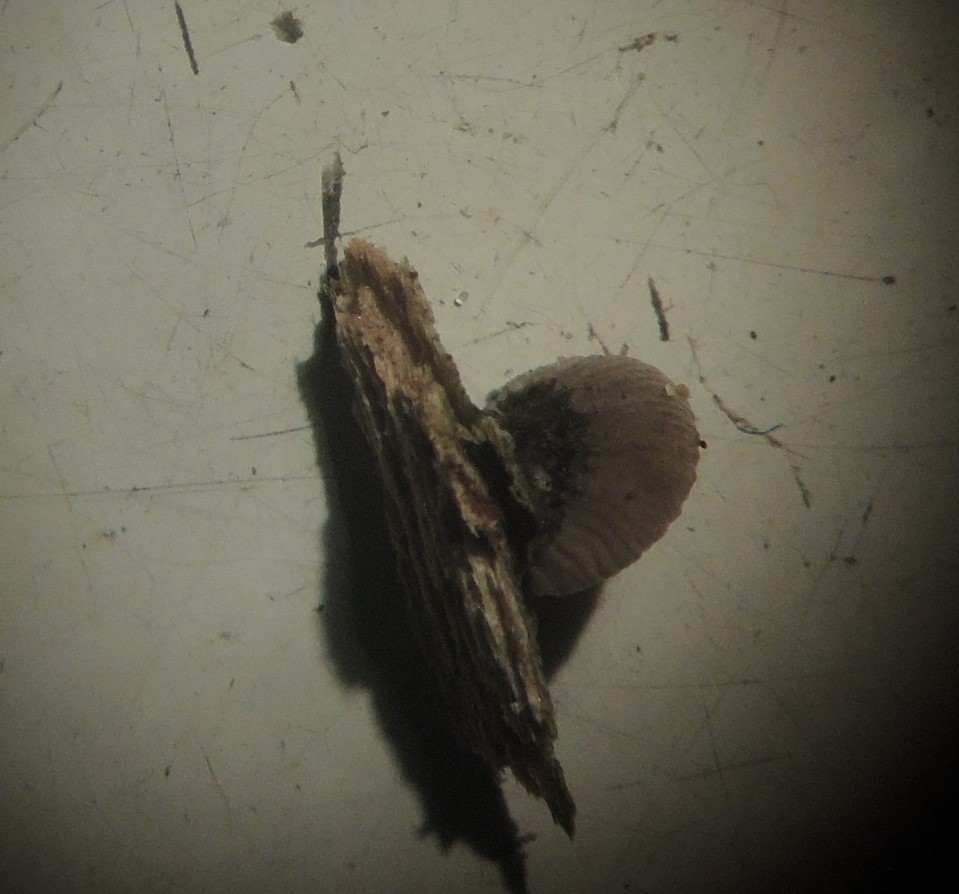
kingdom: Fungi
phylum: Basidiomycota
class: Agaricomycetes
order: Agaricales
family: Pleurotaceae
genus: Resupinatus
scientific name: Resupinatus trichotis
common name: mørkfiltet barkhat
